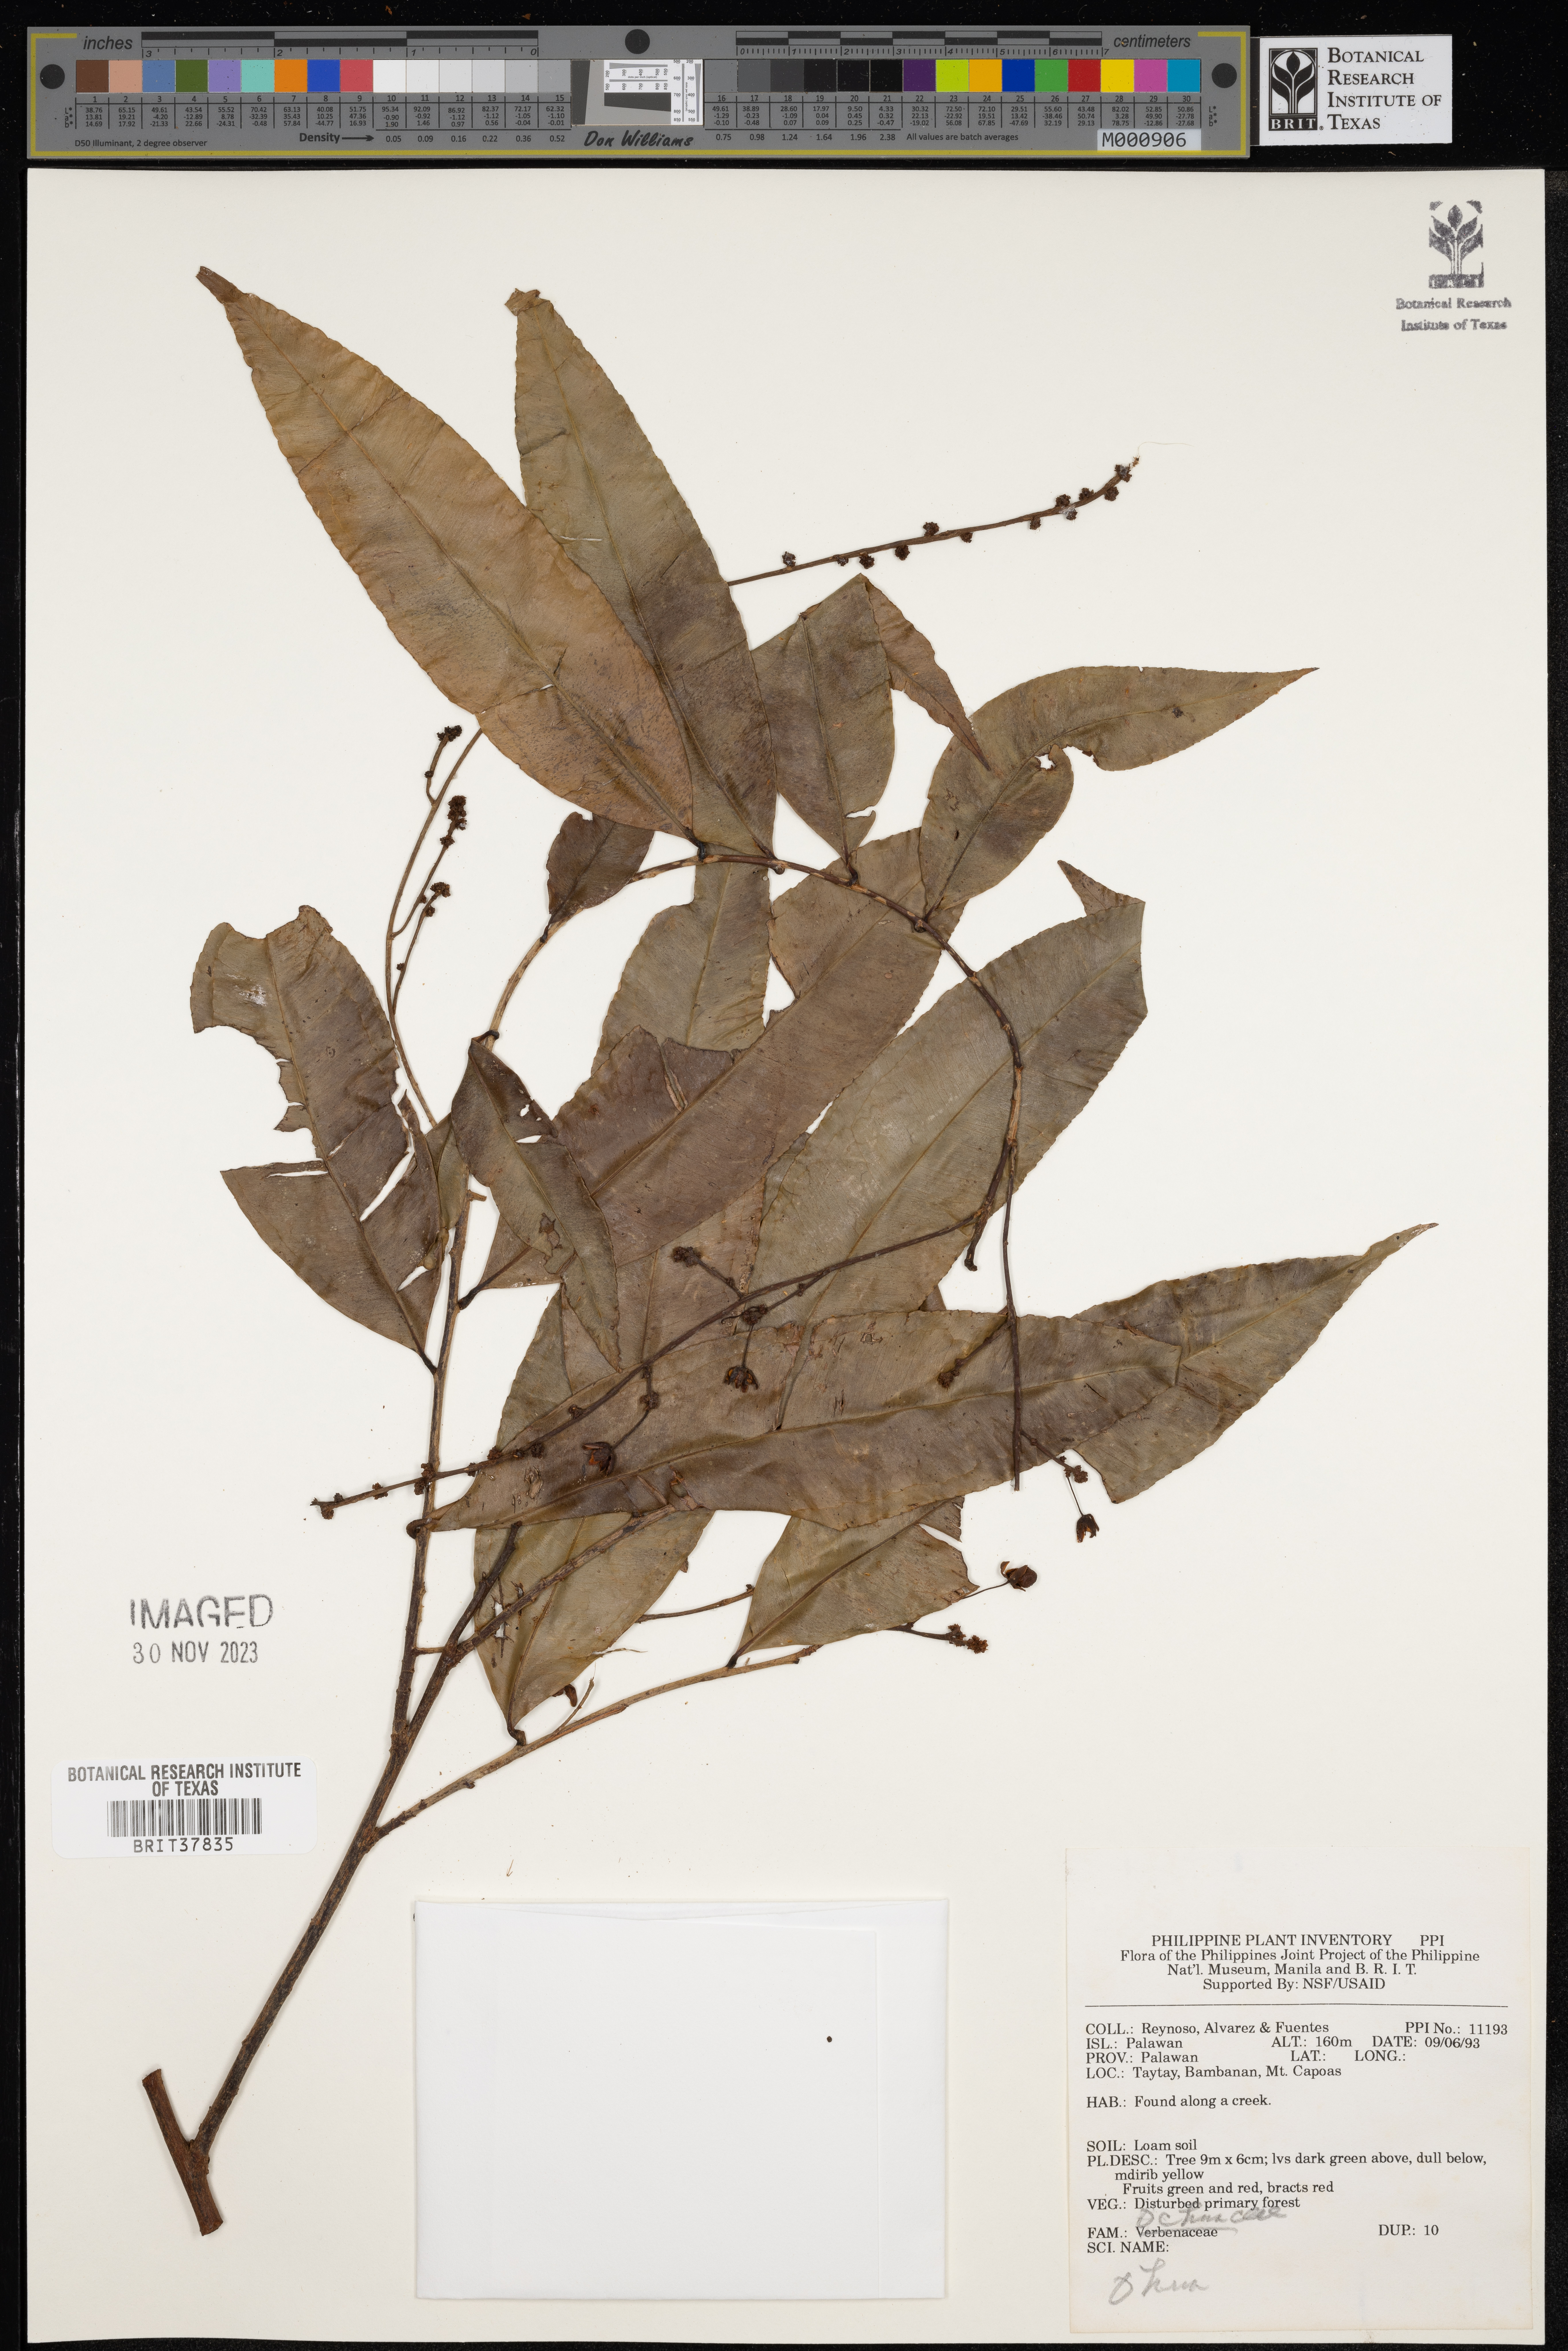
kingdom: Plantae
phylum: Tracheophyta
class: Magnoliopsida
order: Malpighiales
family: Ochnaceae
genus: Ochna
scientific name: Ochna
